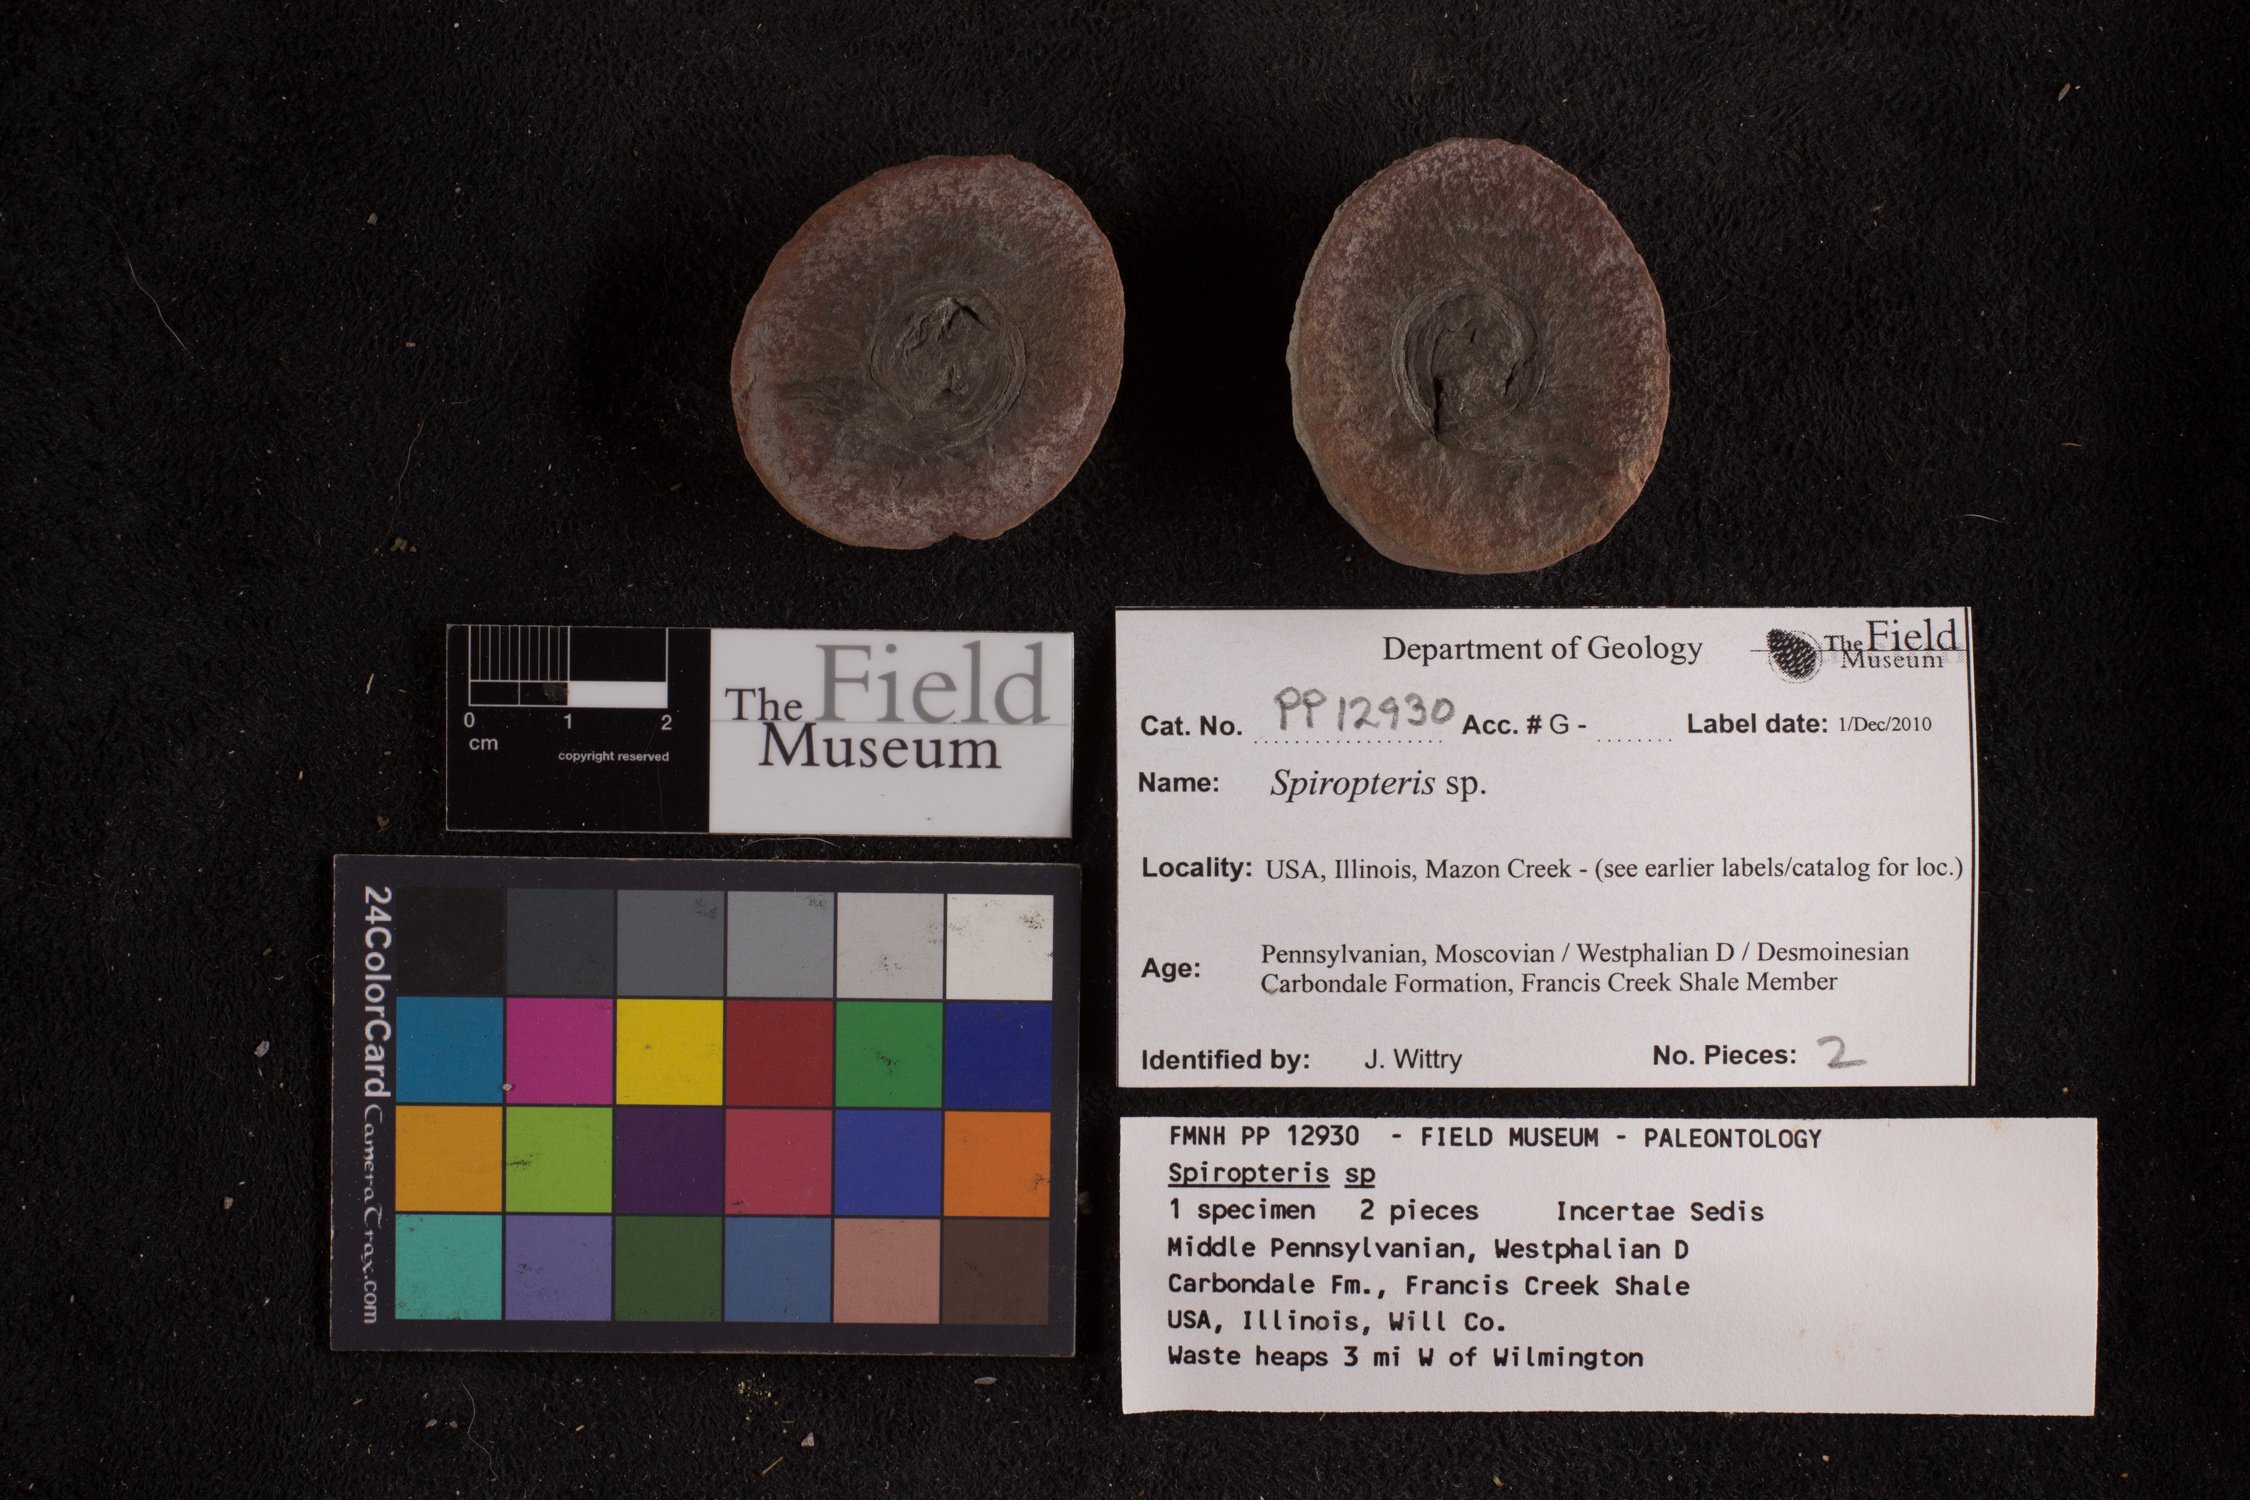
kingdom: Plantae
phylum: Tracheophyta
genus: Spiropteris
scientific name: Spiropteris
